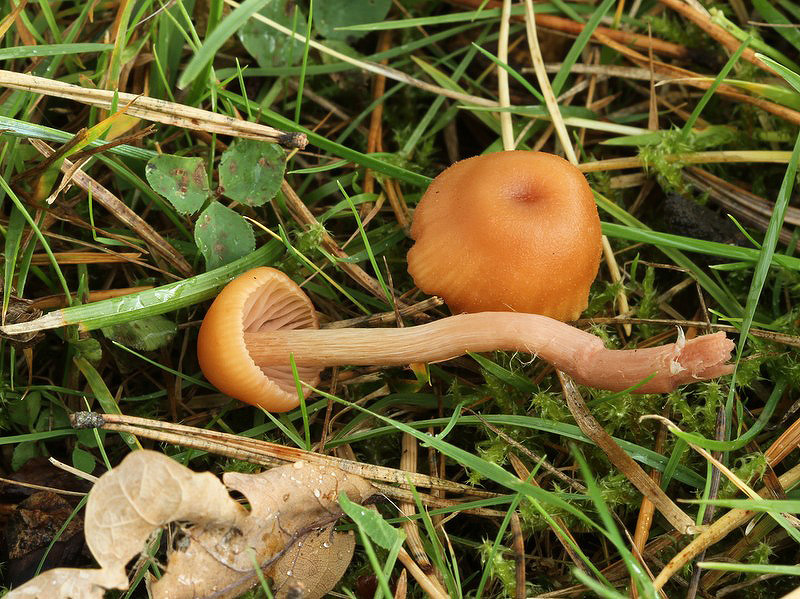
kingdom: Fungi
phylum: Basidiomycota
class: Agaricomycetes
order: Agaricales
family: Hydnangiaceae
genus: Laccaria
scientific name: Laccaria laccata
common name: rød ametysthat
